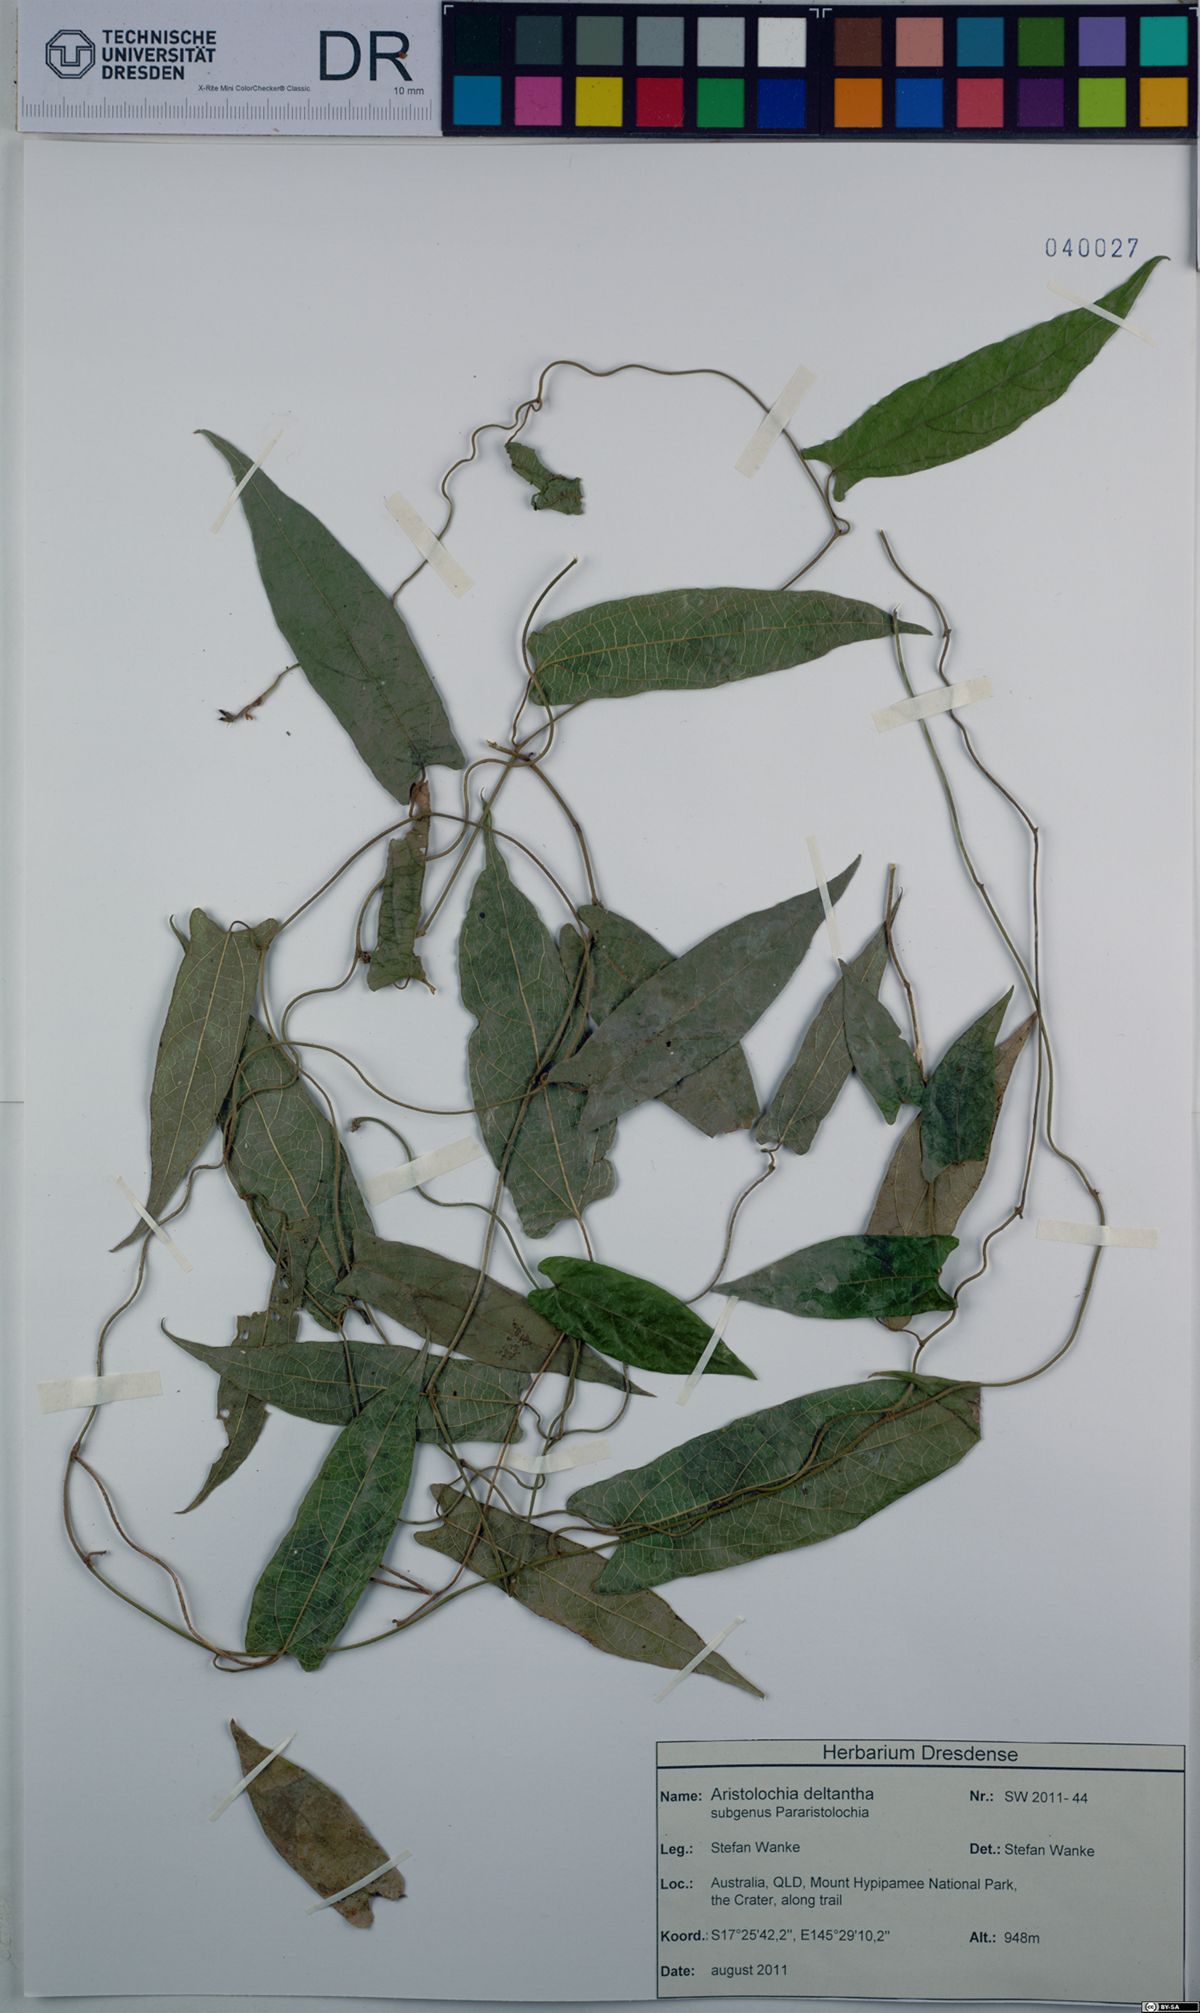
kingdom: Plantae
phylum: Tracheophyta
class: Magnoliopsida
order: Piperales
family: Aristolochiaceae
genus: Aristolochia
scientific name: Aristolochia deltantha
